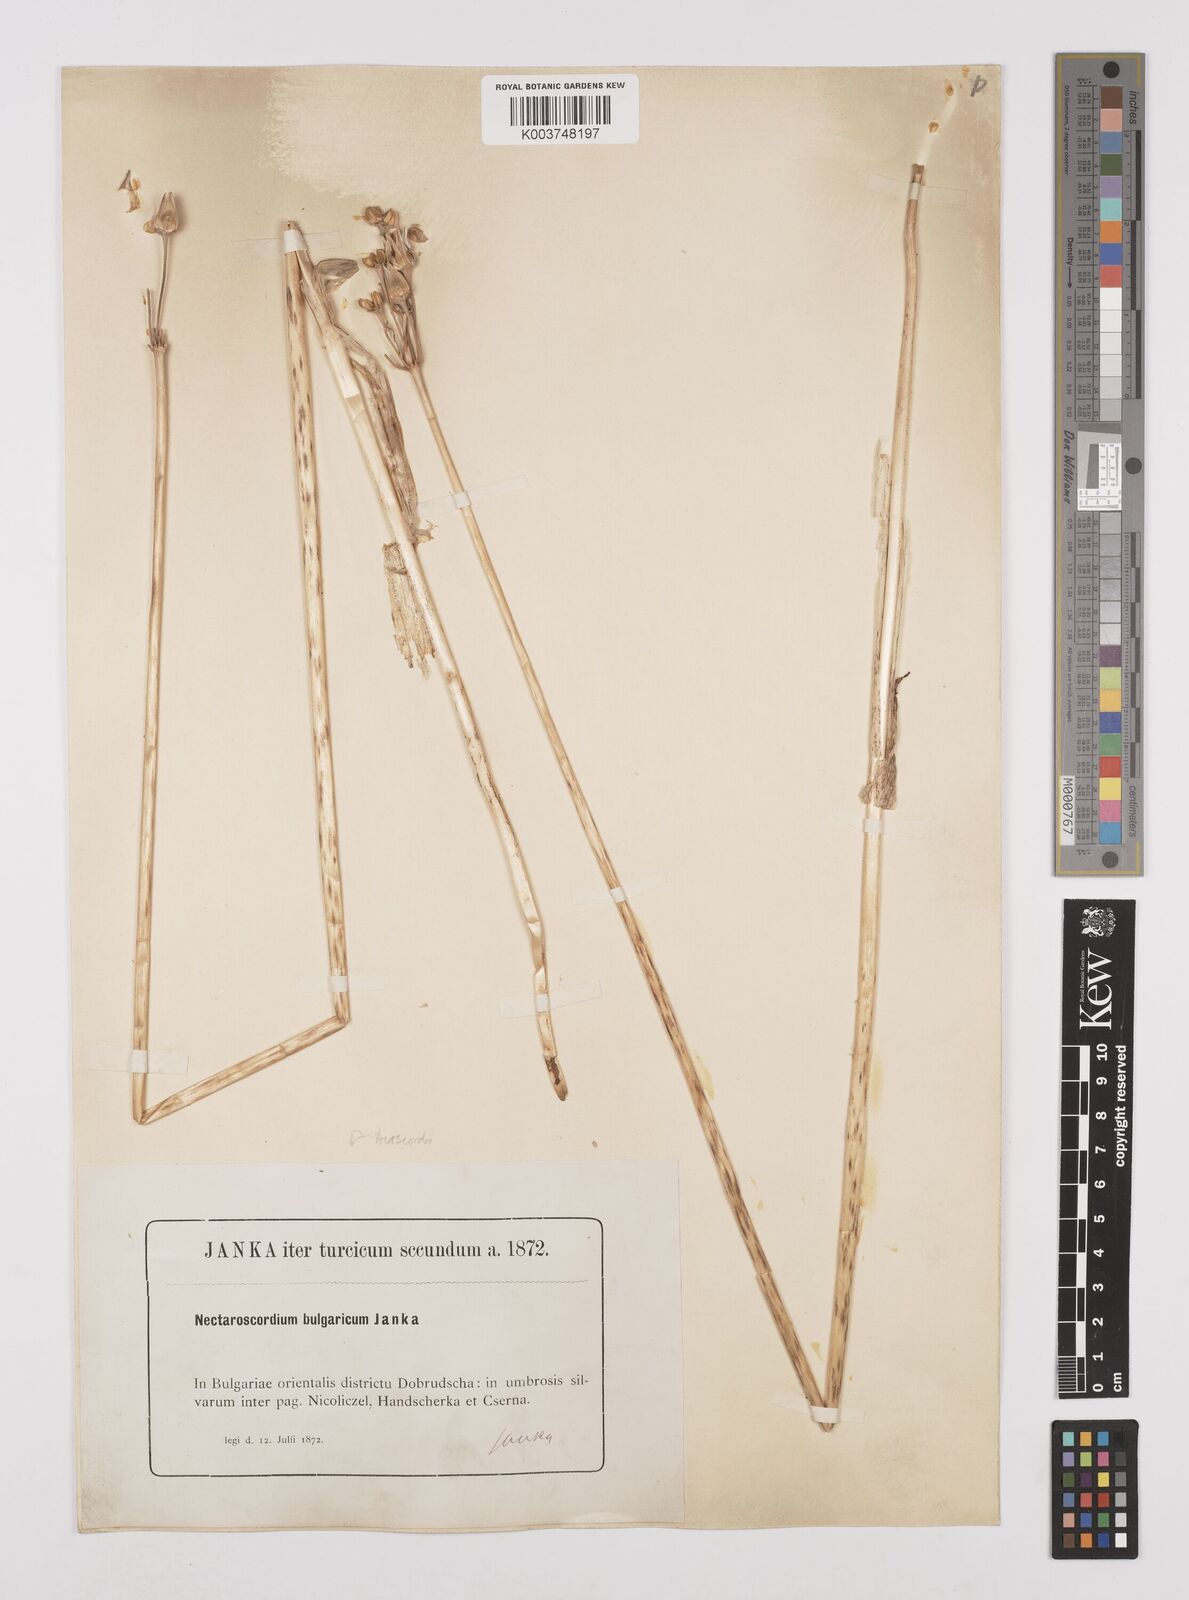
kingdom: Plantae
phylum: Tracheophyta
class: Liliopsida
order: Asparagales
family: Amaryllidaceae
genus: Allium
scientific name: Allium siculum
